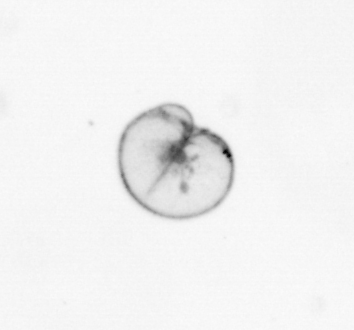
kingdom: Chromista
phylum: Myzozoa
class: Dinophyceae
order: Noctilucales
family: Noctilucaceae
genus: Noctiluca
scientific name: Noctiluca scintillans
